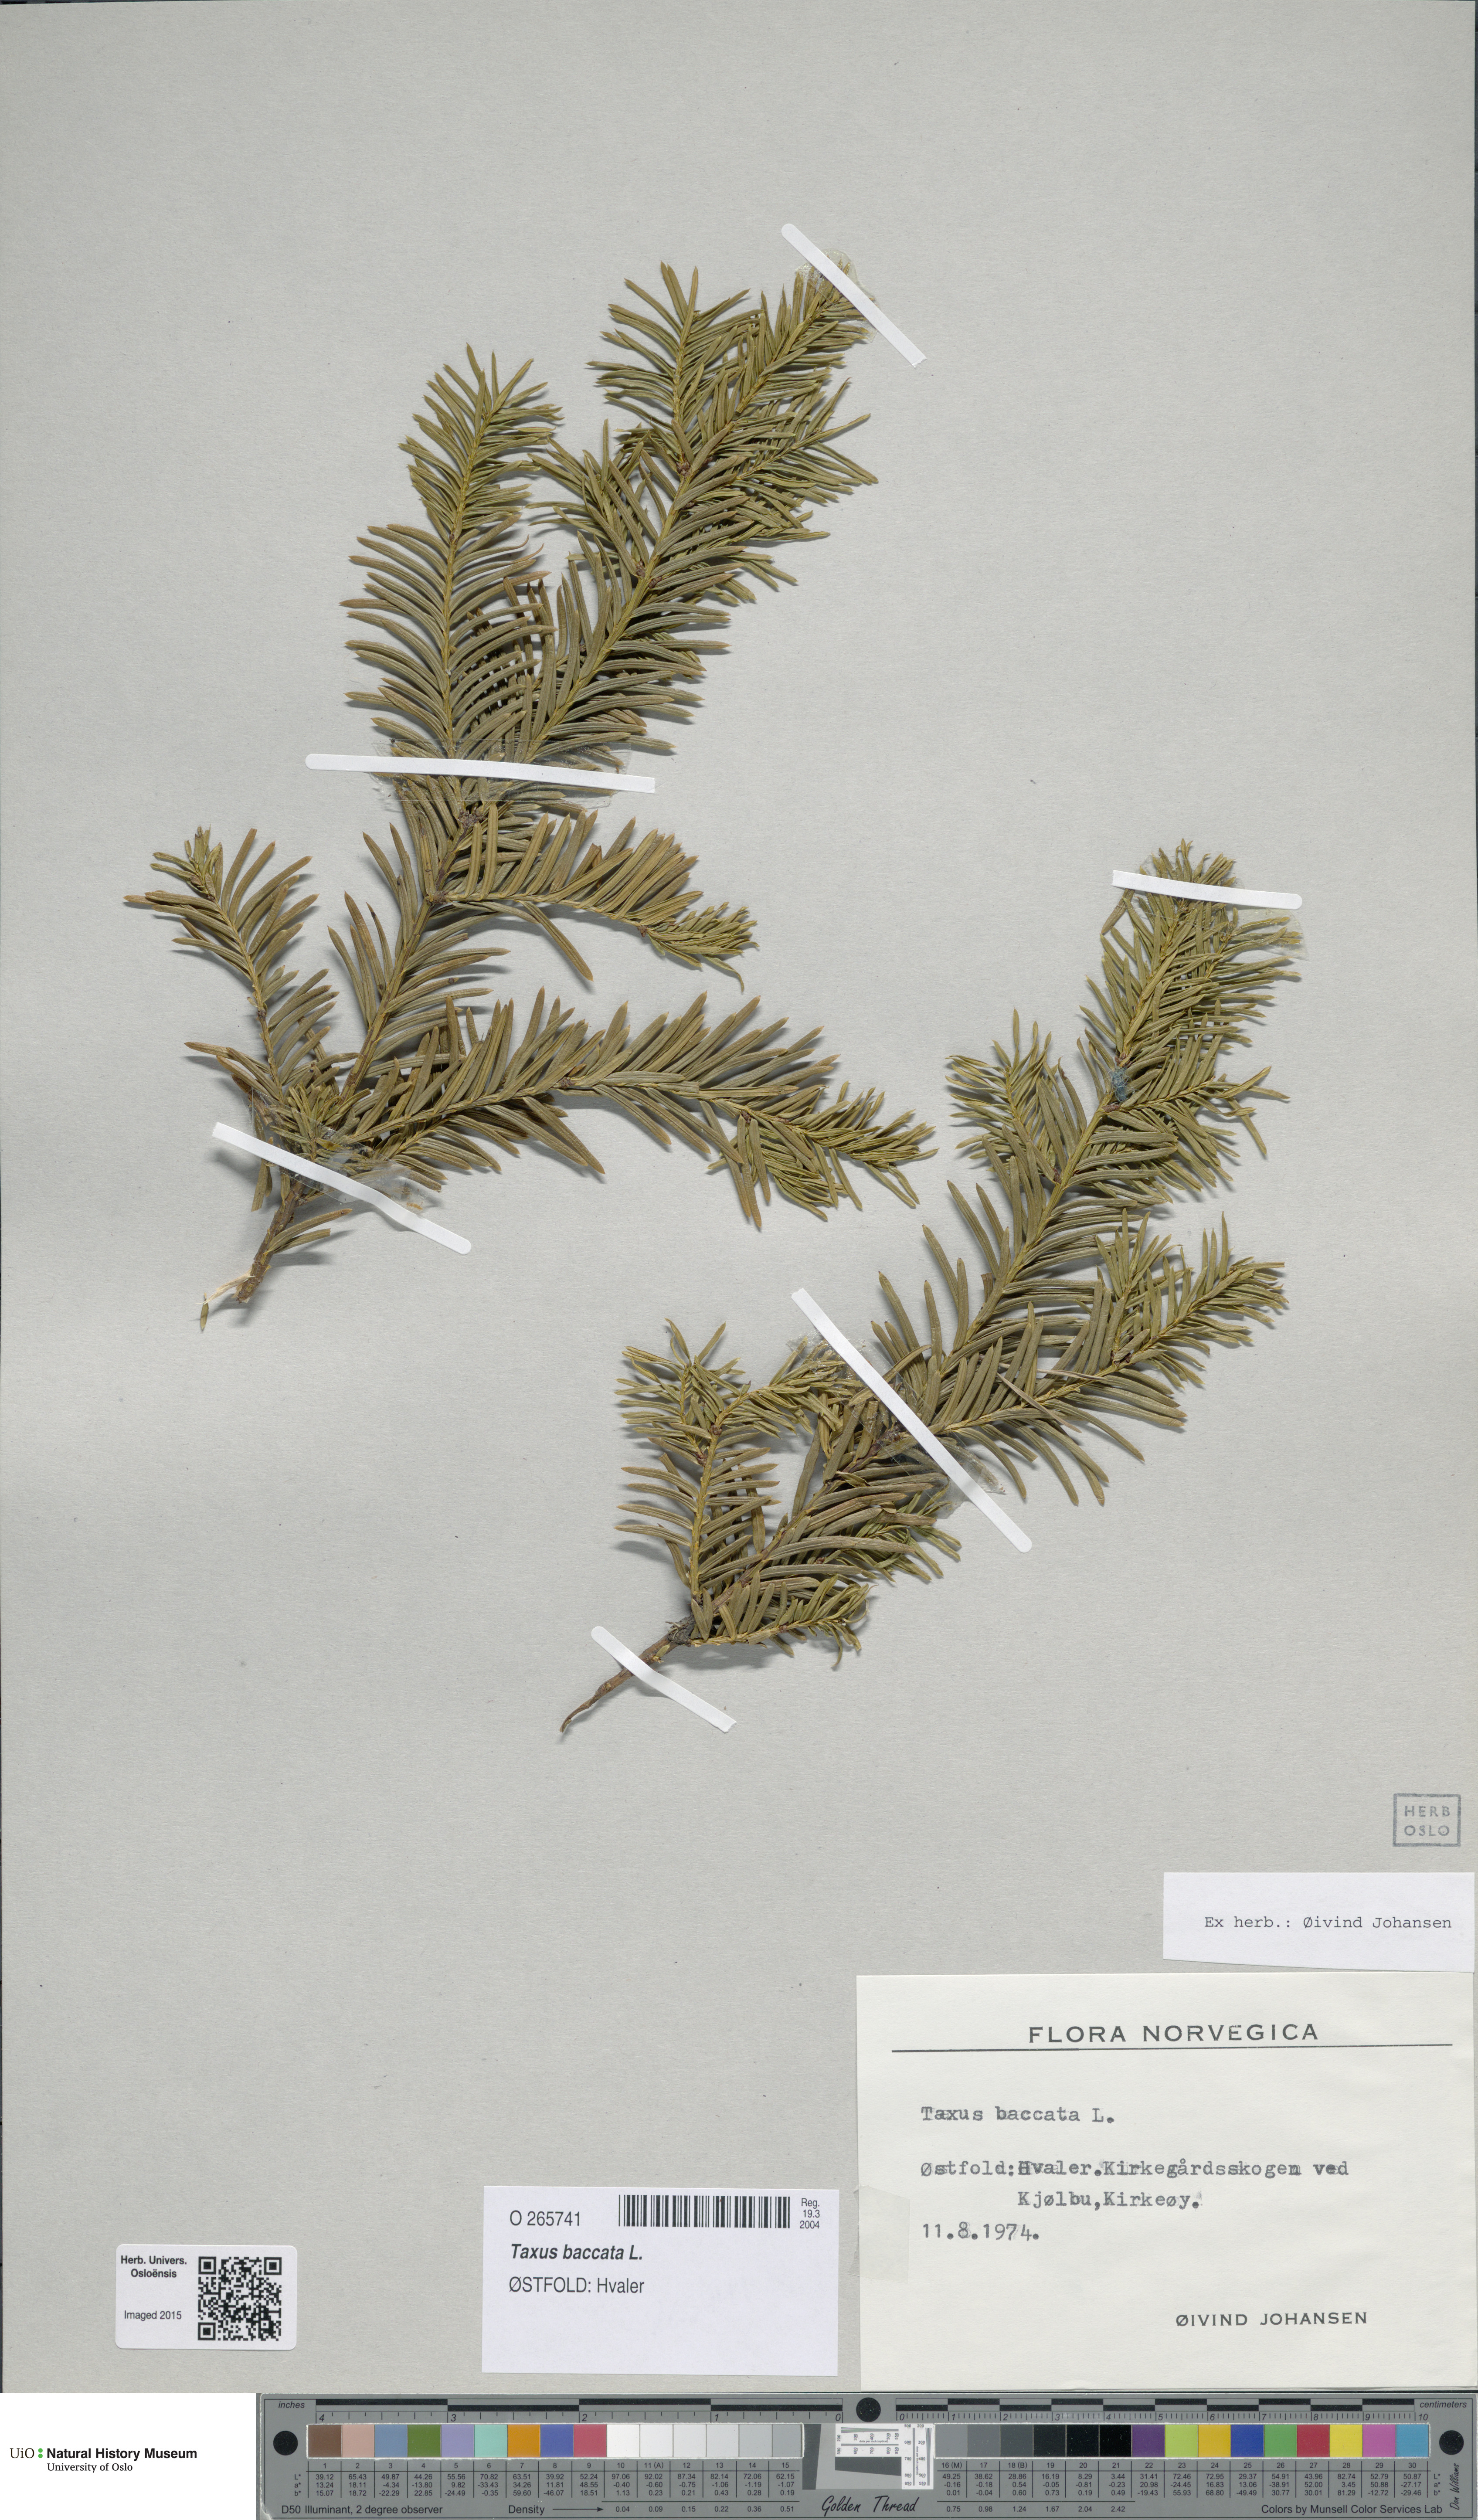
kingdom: Plantae
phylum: Tracheophyta
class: Pinopsida
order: Pinales
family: Taxaceae
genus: Taxus
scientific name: Taxus baccata
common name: Yew
